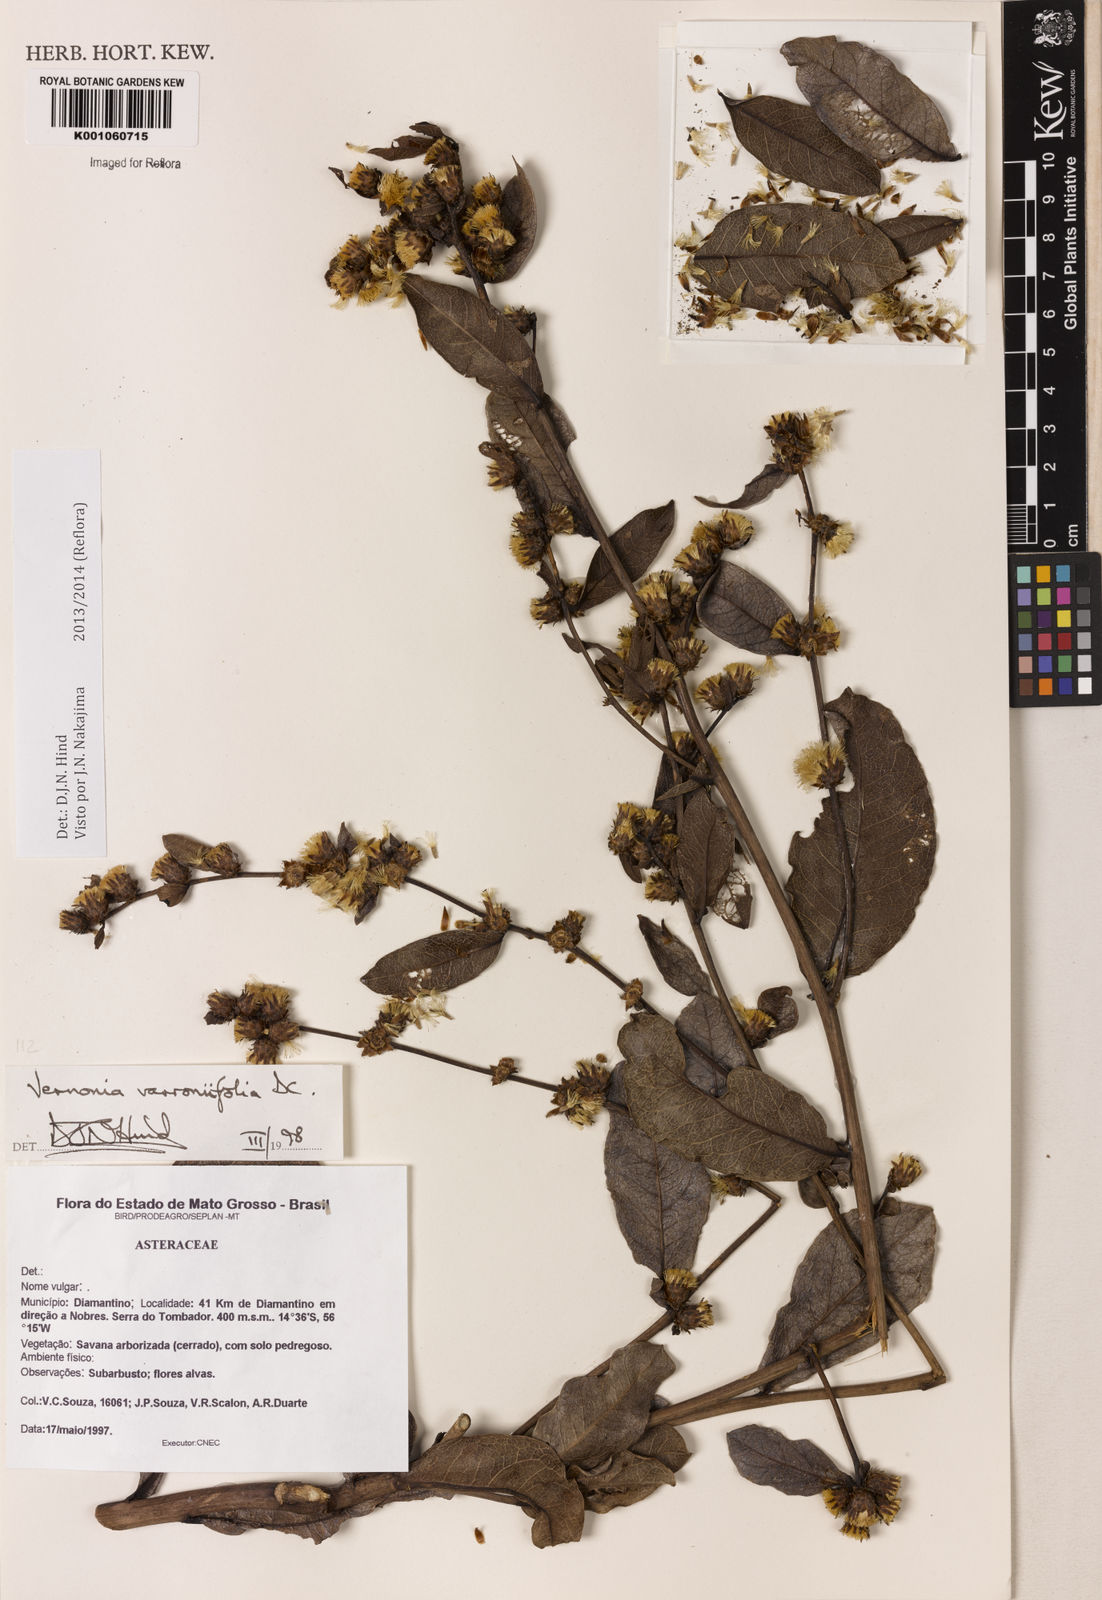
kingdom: Plantae
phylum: Tracheophyta
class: Magnoliopsida
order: Asterales
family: Asteraceae
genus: Lessingianthus
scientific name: Lessingianthus varroniifolius
